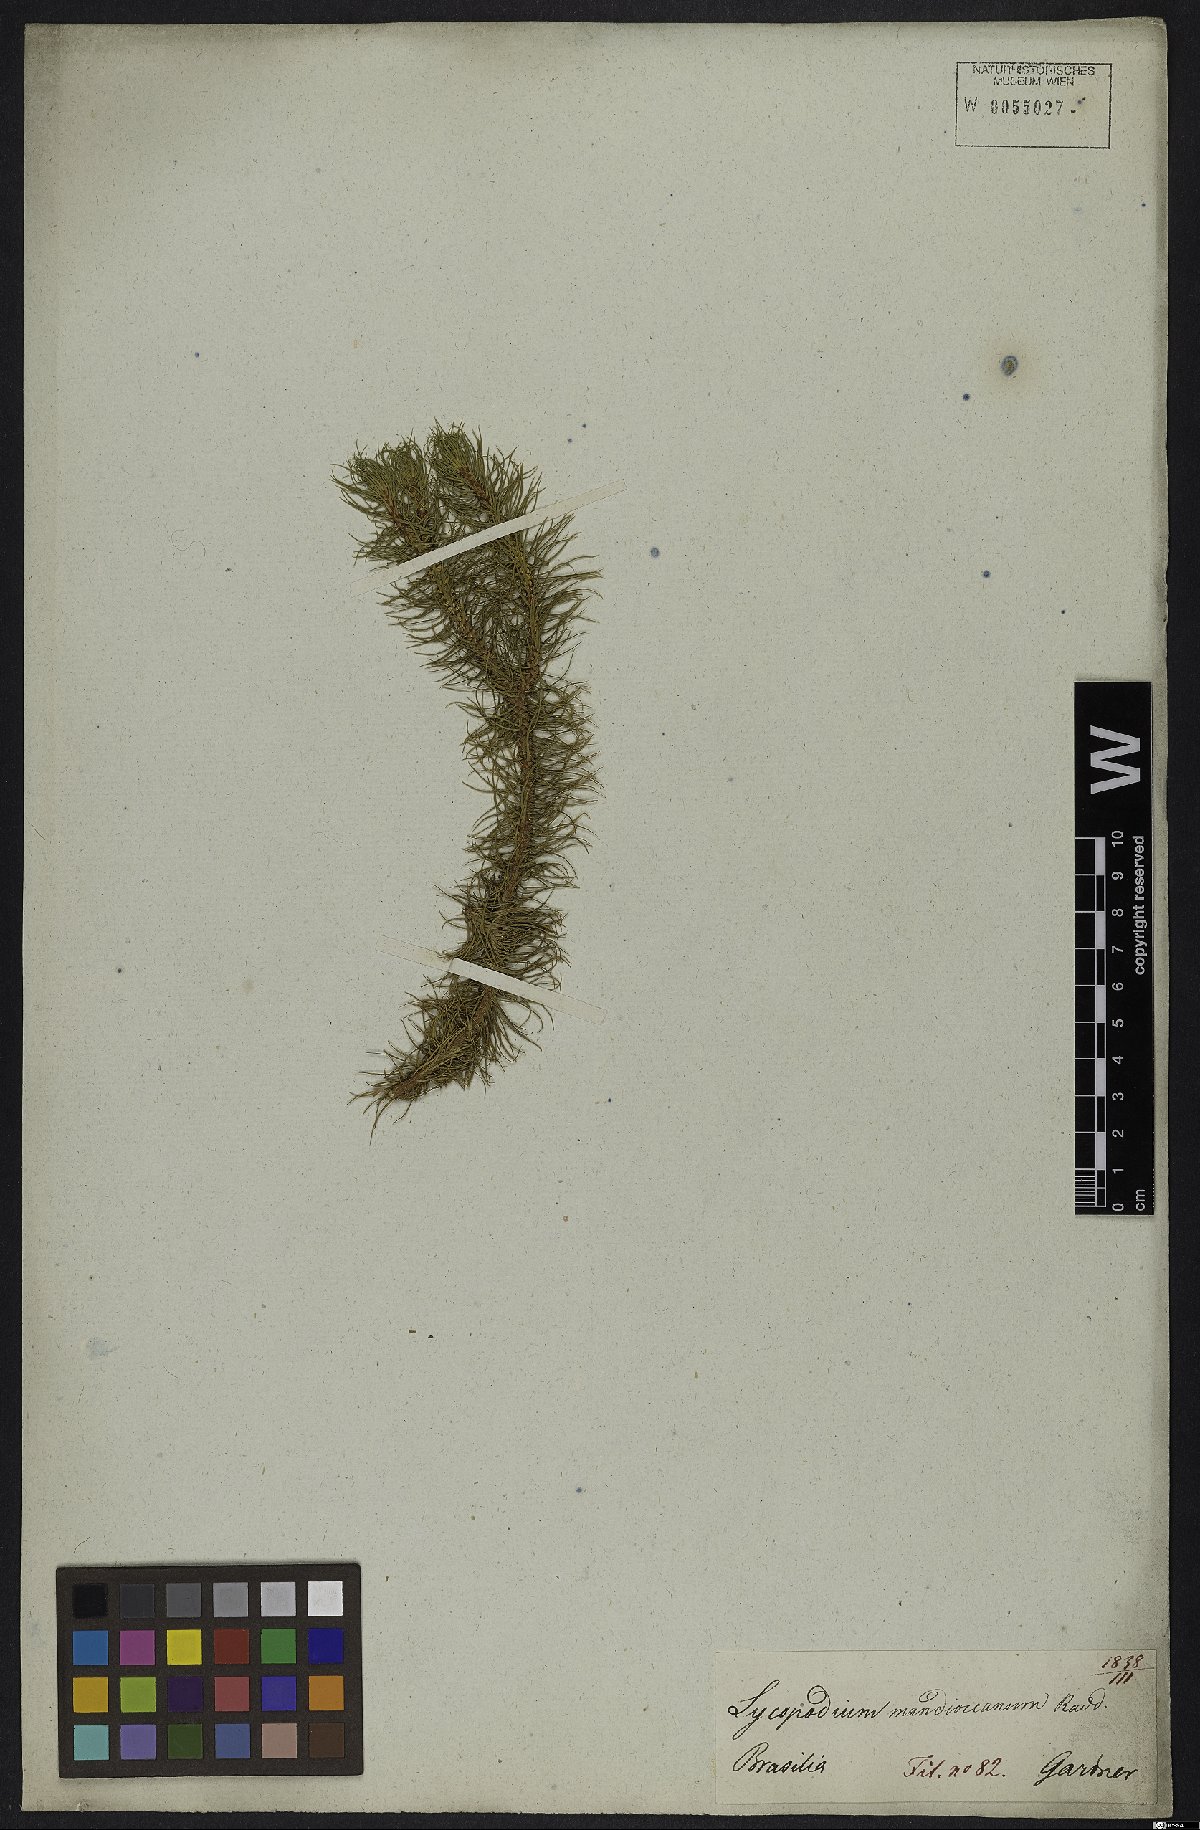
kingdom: Plantae
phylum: Tracheophyta
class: Lycopodiopsida
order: Lycopodiales
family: Lycopodiaceae
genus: Phlegmariurus
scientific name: Phlegmariurus mandiocanus
